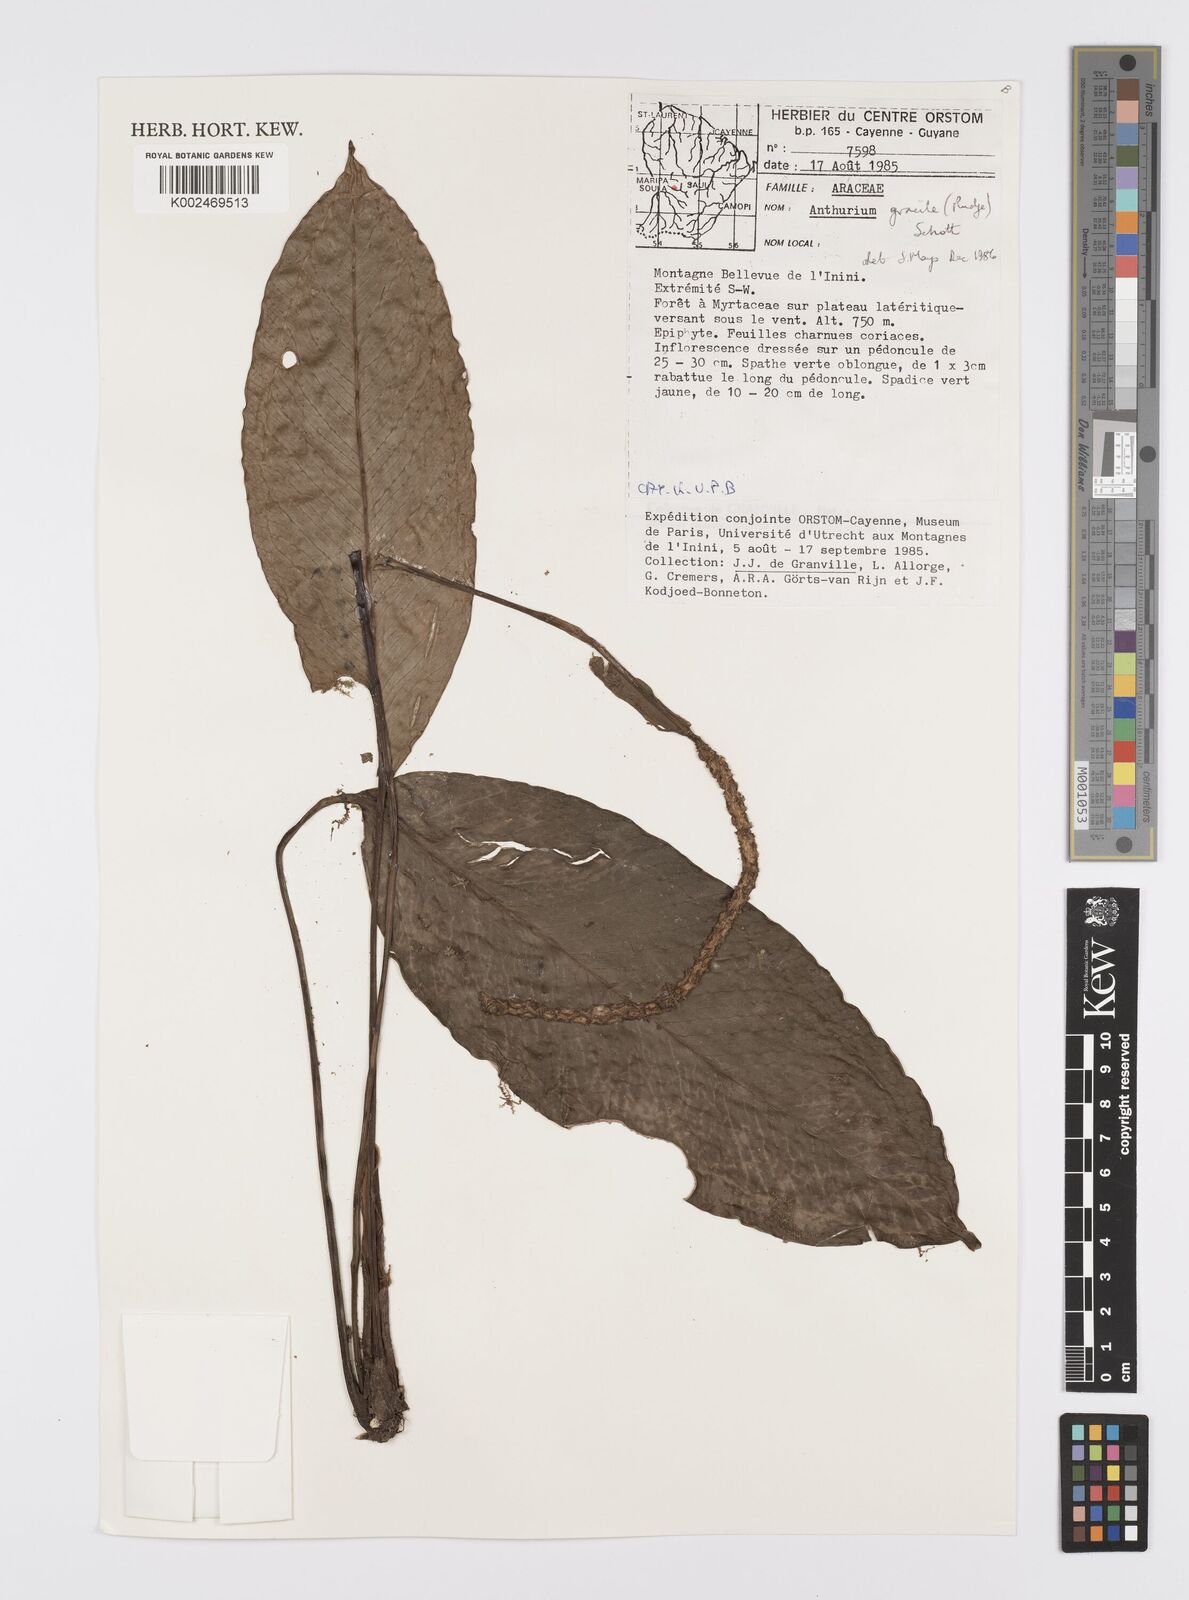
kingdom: Plantae
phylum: Tracheophyta
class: Liliopsida
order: Alismatales
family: Araceae
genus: Anthurium
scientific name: Anthurium lanjouwii
